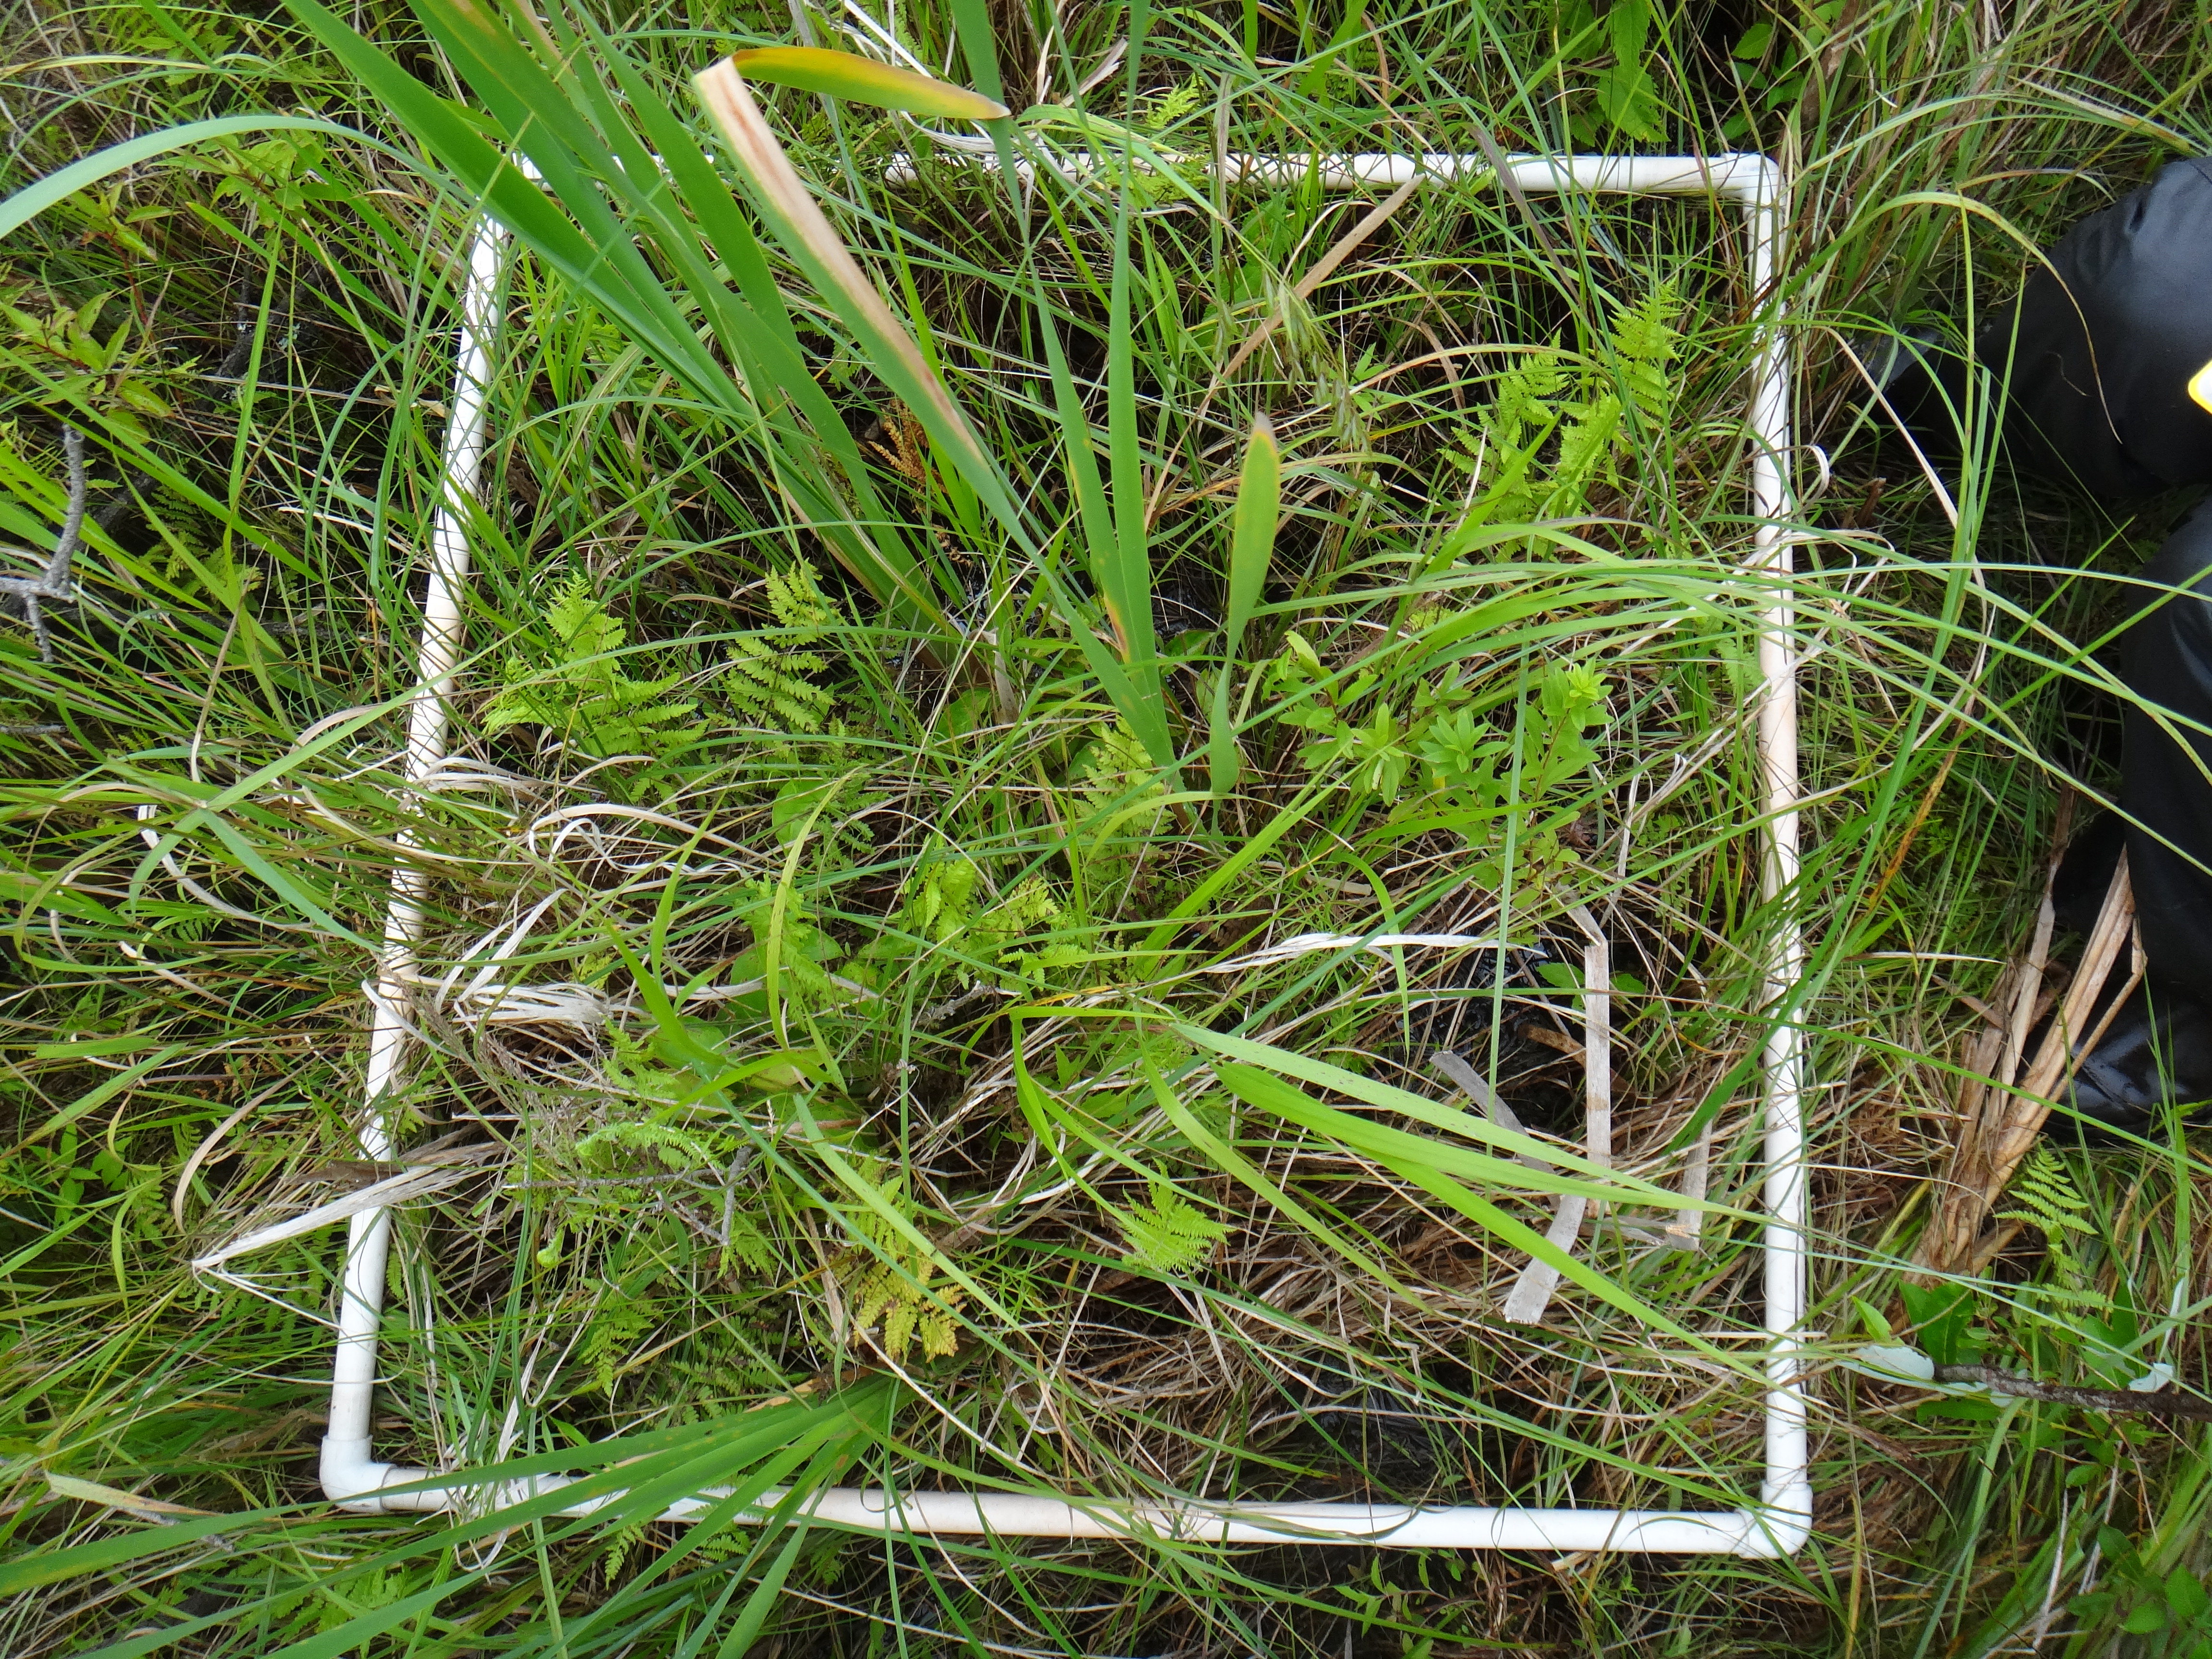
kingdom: Plantae
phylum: Tracheophyta
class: Polypodiopsida
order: Polypodiales
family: Thelypteridaceae
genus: Thelypteris
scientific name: Thelypteris palustris
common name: Marsh fern
